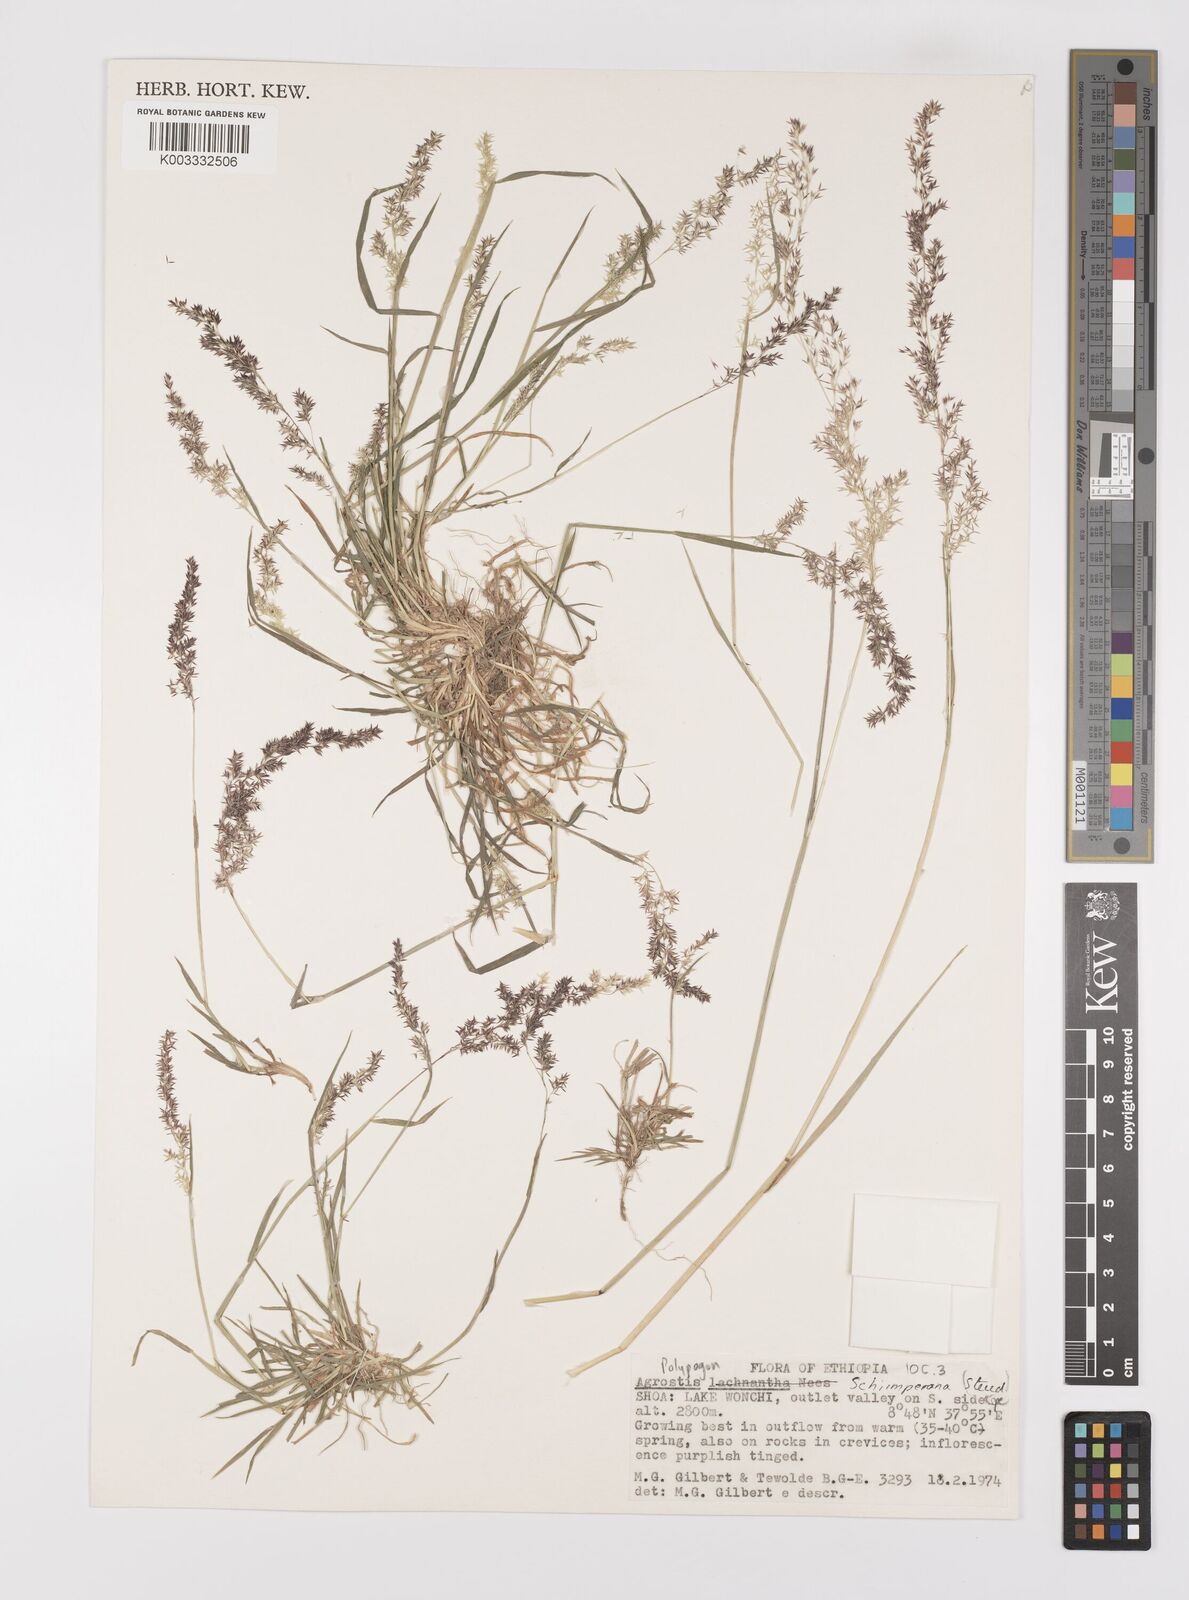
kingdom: Plantae
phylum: Tracheophyta
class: Liliopsida
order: Poales
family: Poaceae
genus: Polypogon
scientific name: Polypogon schimperianus
